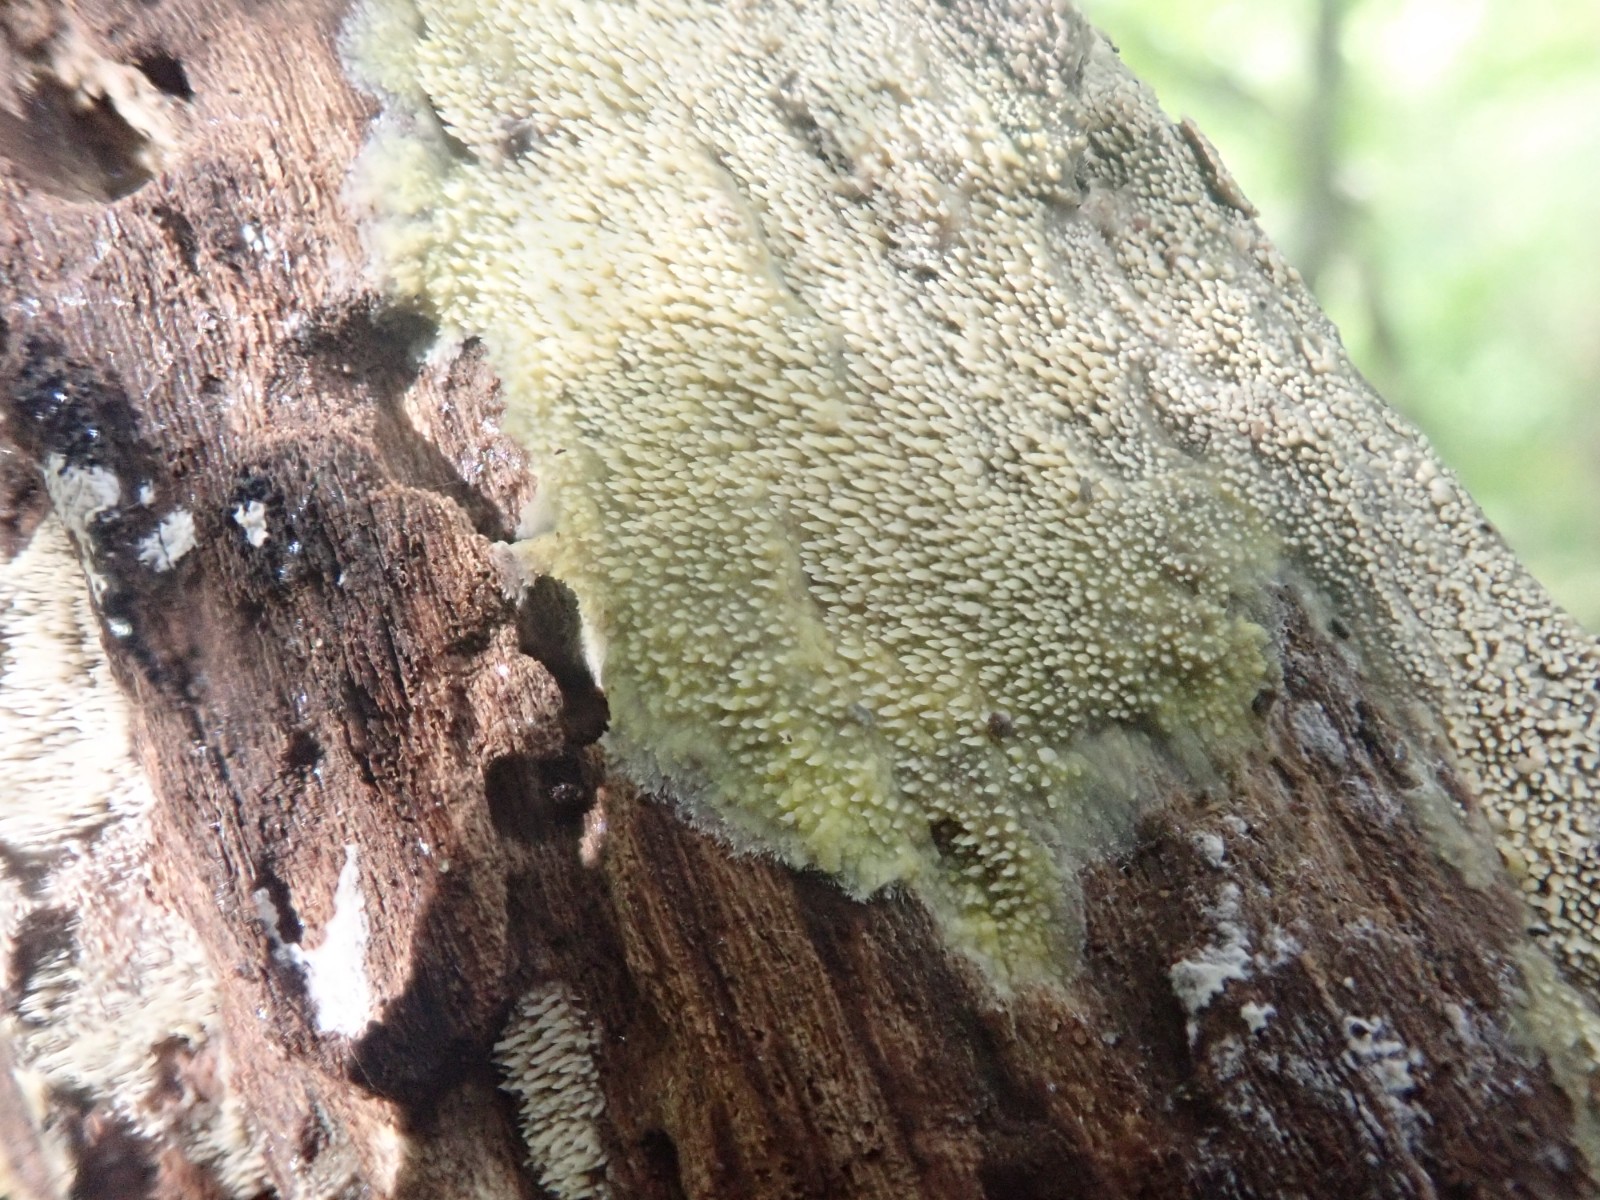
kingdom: Fungi
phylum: Basidiomycota
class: Agaricomycetes
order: Polyporales
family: Meruliaceae
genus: Mycoacia
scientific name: Mycoacia uda
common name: citrongul vokspig
